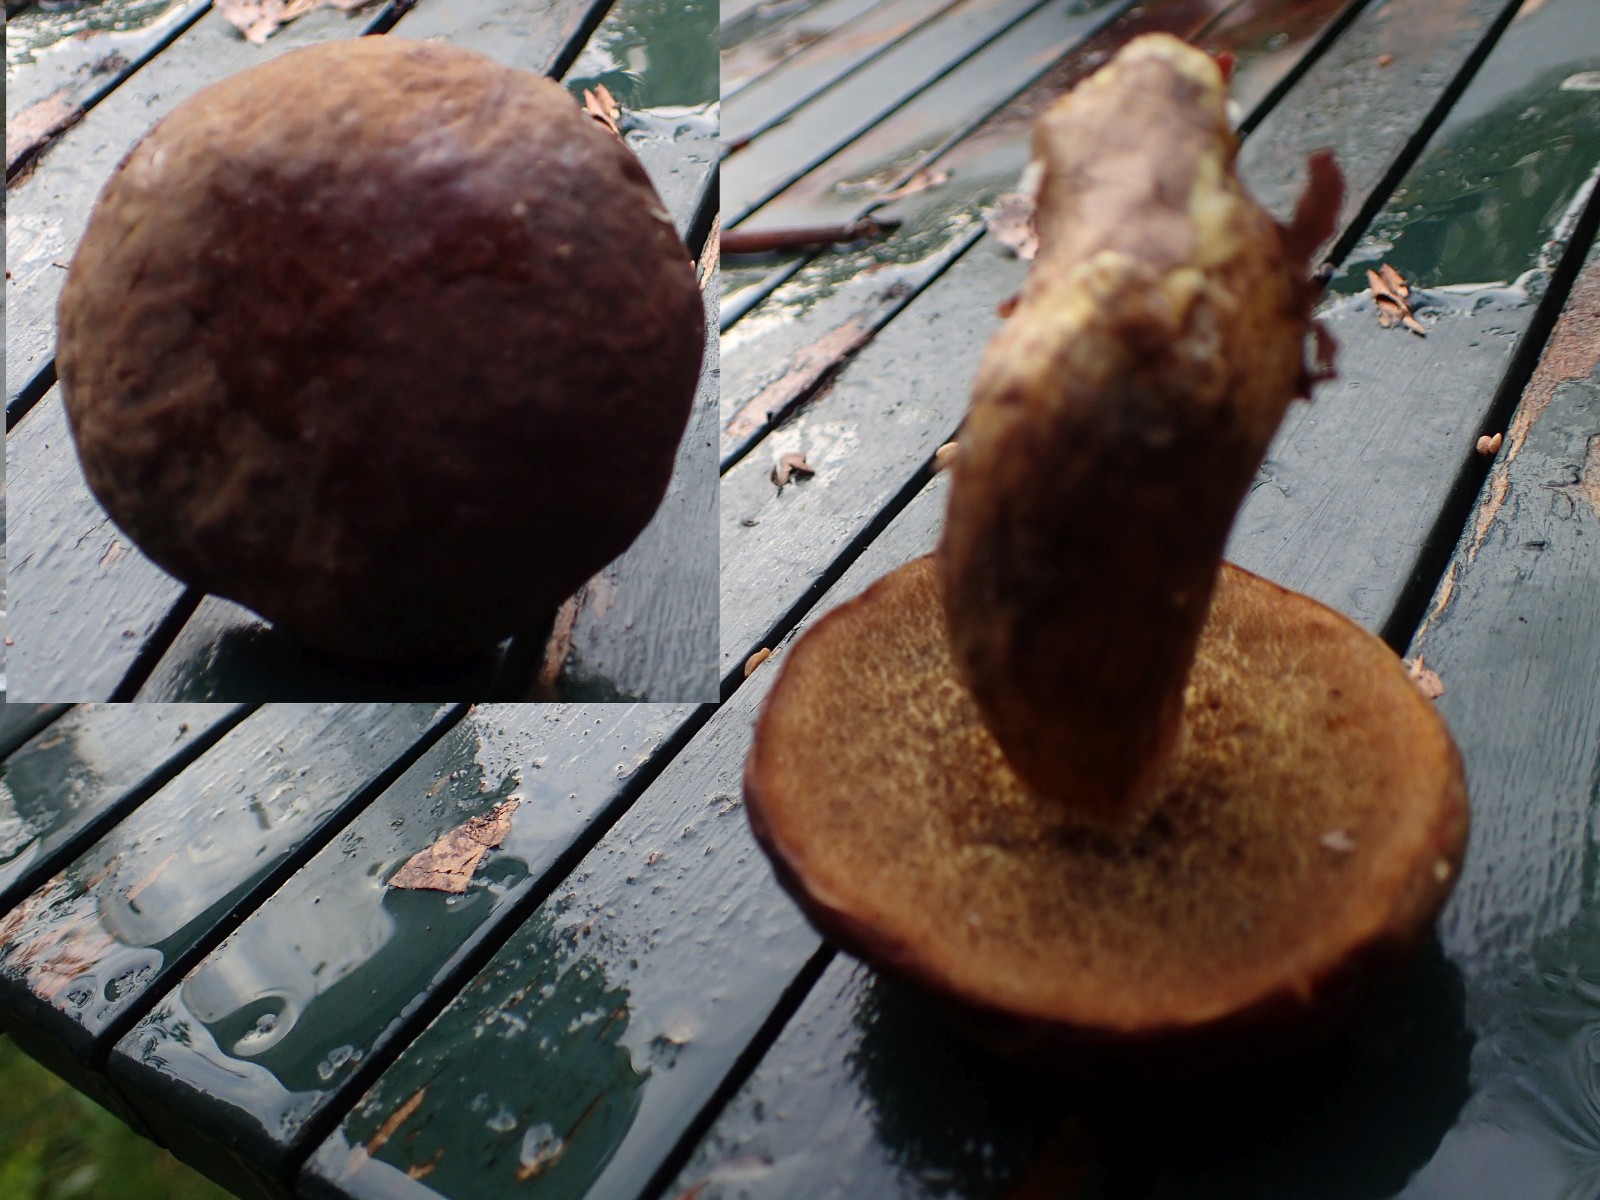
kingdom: Fungi
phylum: Basidiomycota
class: Agaricomycetes
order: Boletales
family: Boletaceae
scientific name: Boletaceae
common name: rørhatfamilien
